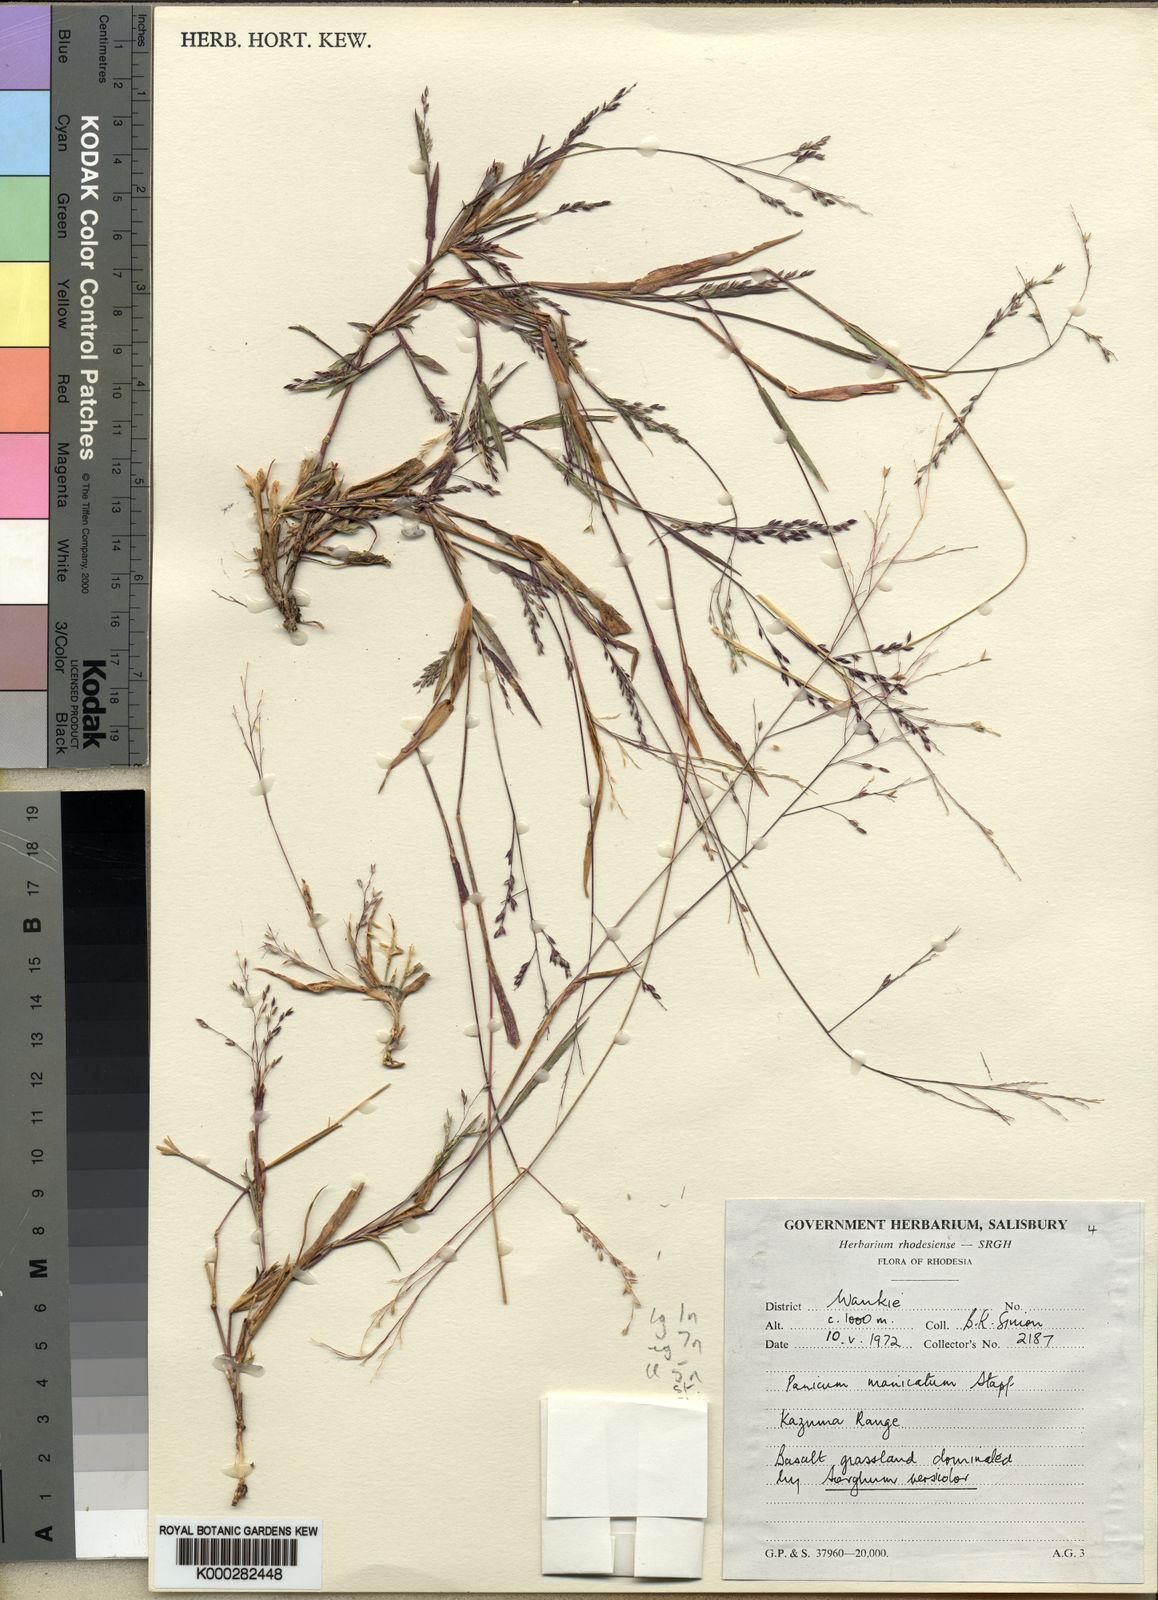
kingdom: Plantae
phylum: Tracheophyta
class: Liliopsida
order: Poales
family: Poaceae
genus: Panicum
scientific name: Panicum kasumense
